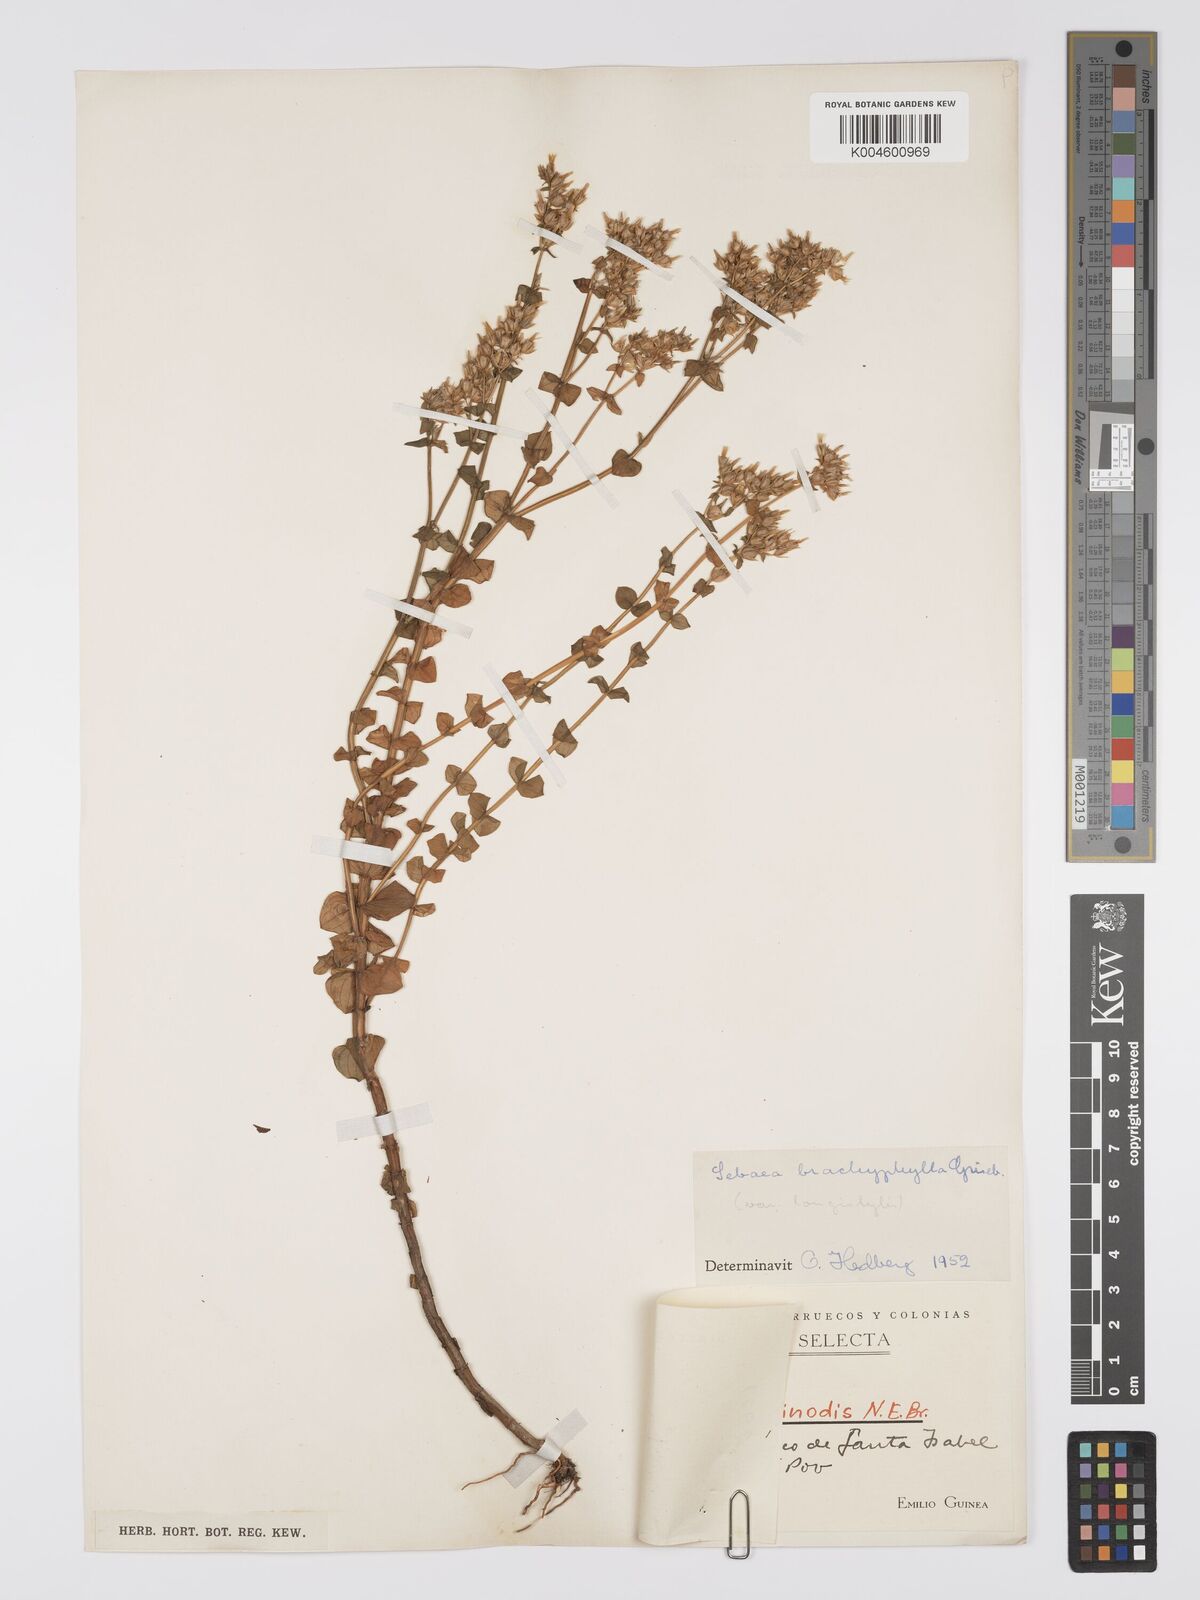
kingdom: Plantae
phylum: Tracheophyta
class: Magnoliopsida
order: Gentianales
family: Gentianaceae
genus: Sebaea
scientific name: Sebaea brachyphylla
